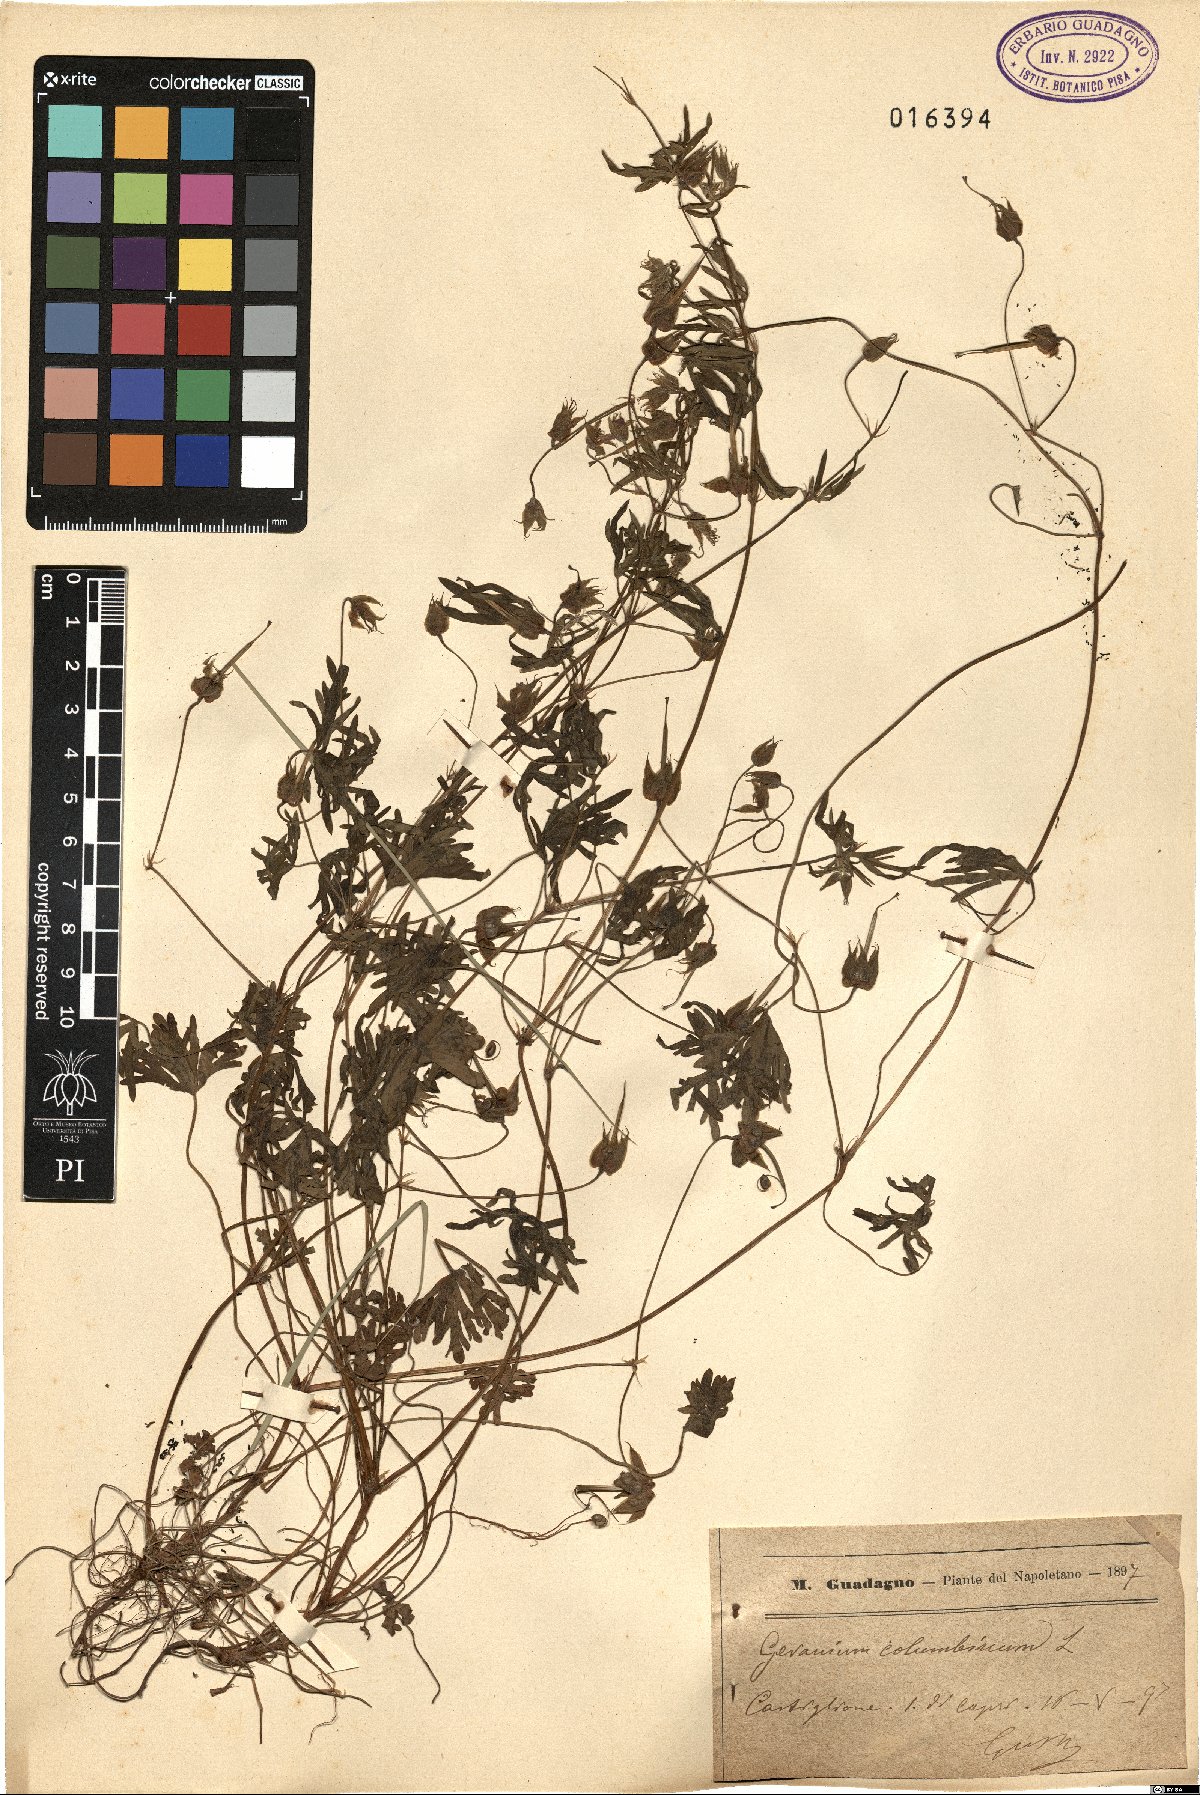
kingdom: Plantae
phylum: Tracheophyta
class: Magnoliopsida
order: Geraniales
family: Geraniaceae
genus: Geranium
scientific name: Geranium columbinum
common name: Long-stalked crane's-bill
